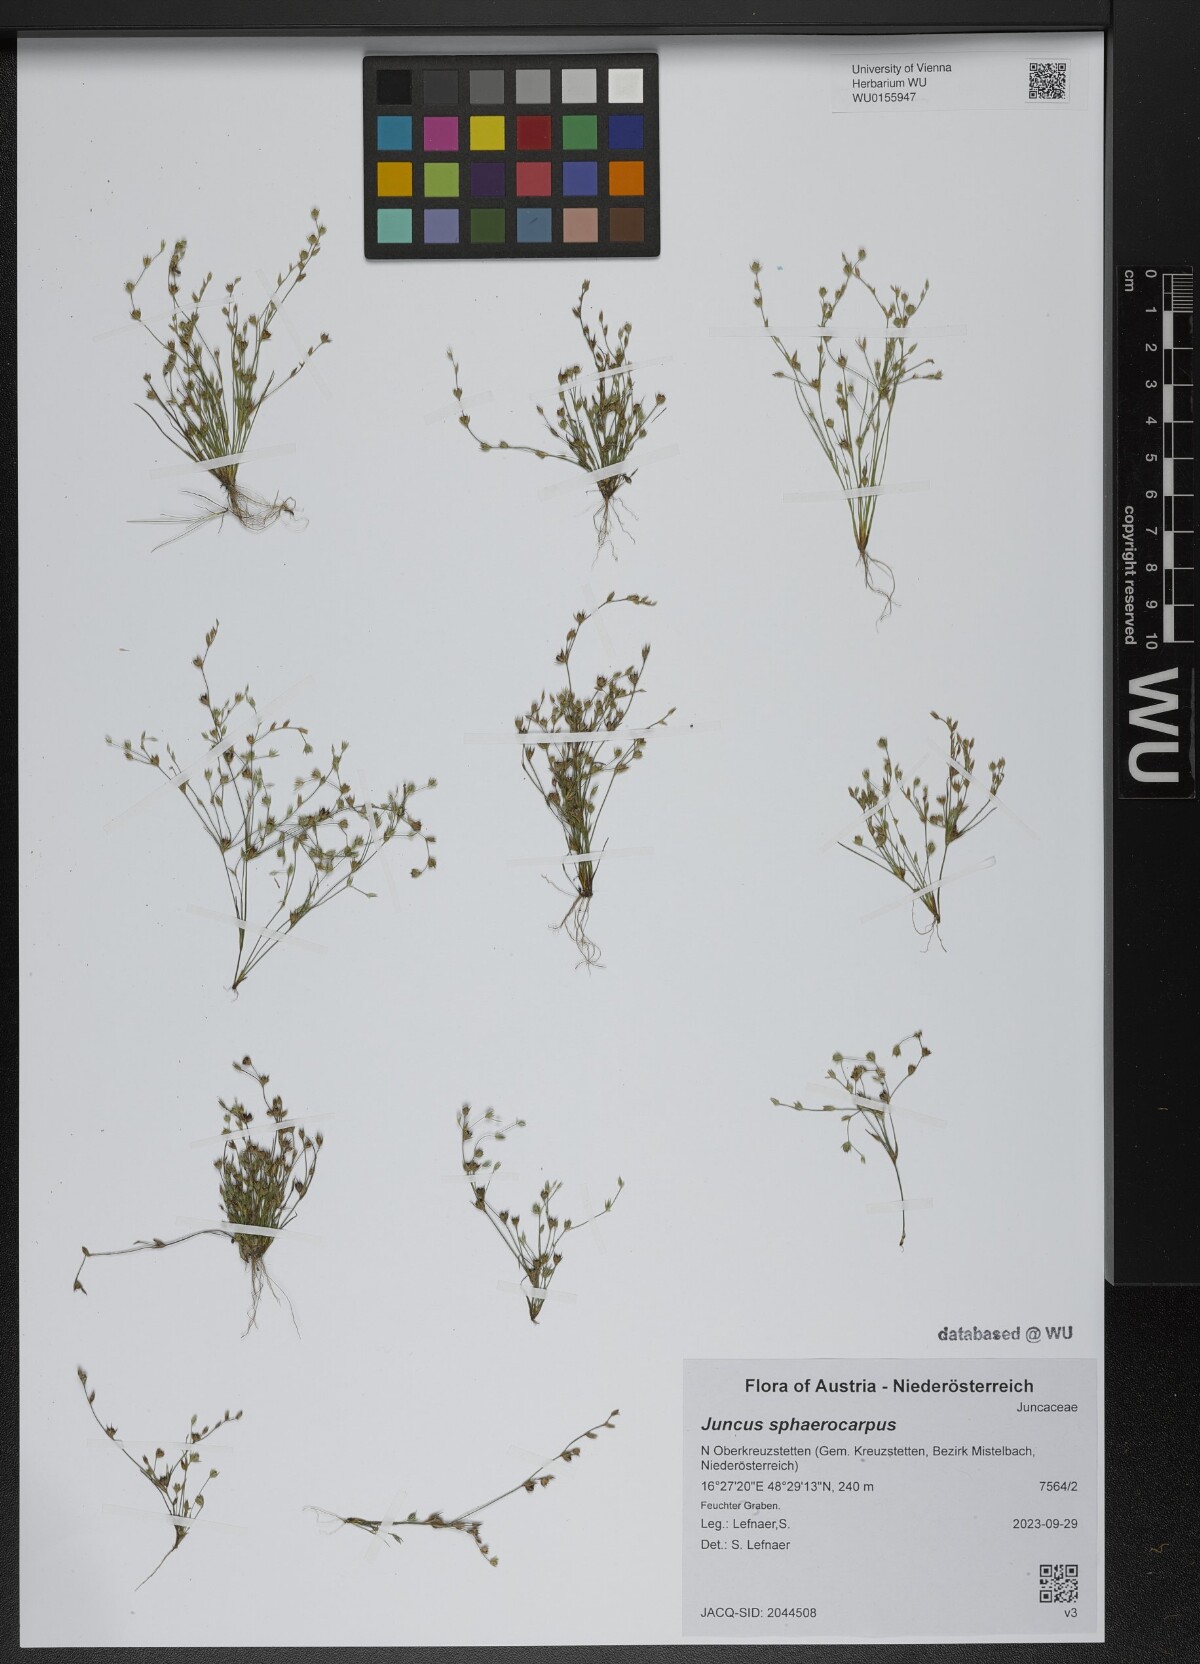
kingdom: Plantae
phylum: Tracheophyta
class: Liliopsida
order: Poales
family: Juncaceae
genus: Juncus
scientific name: Juncus sphaerocarpus
